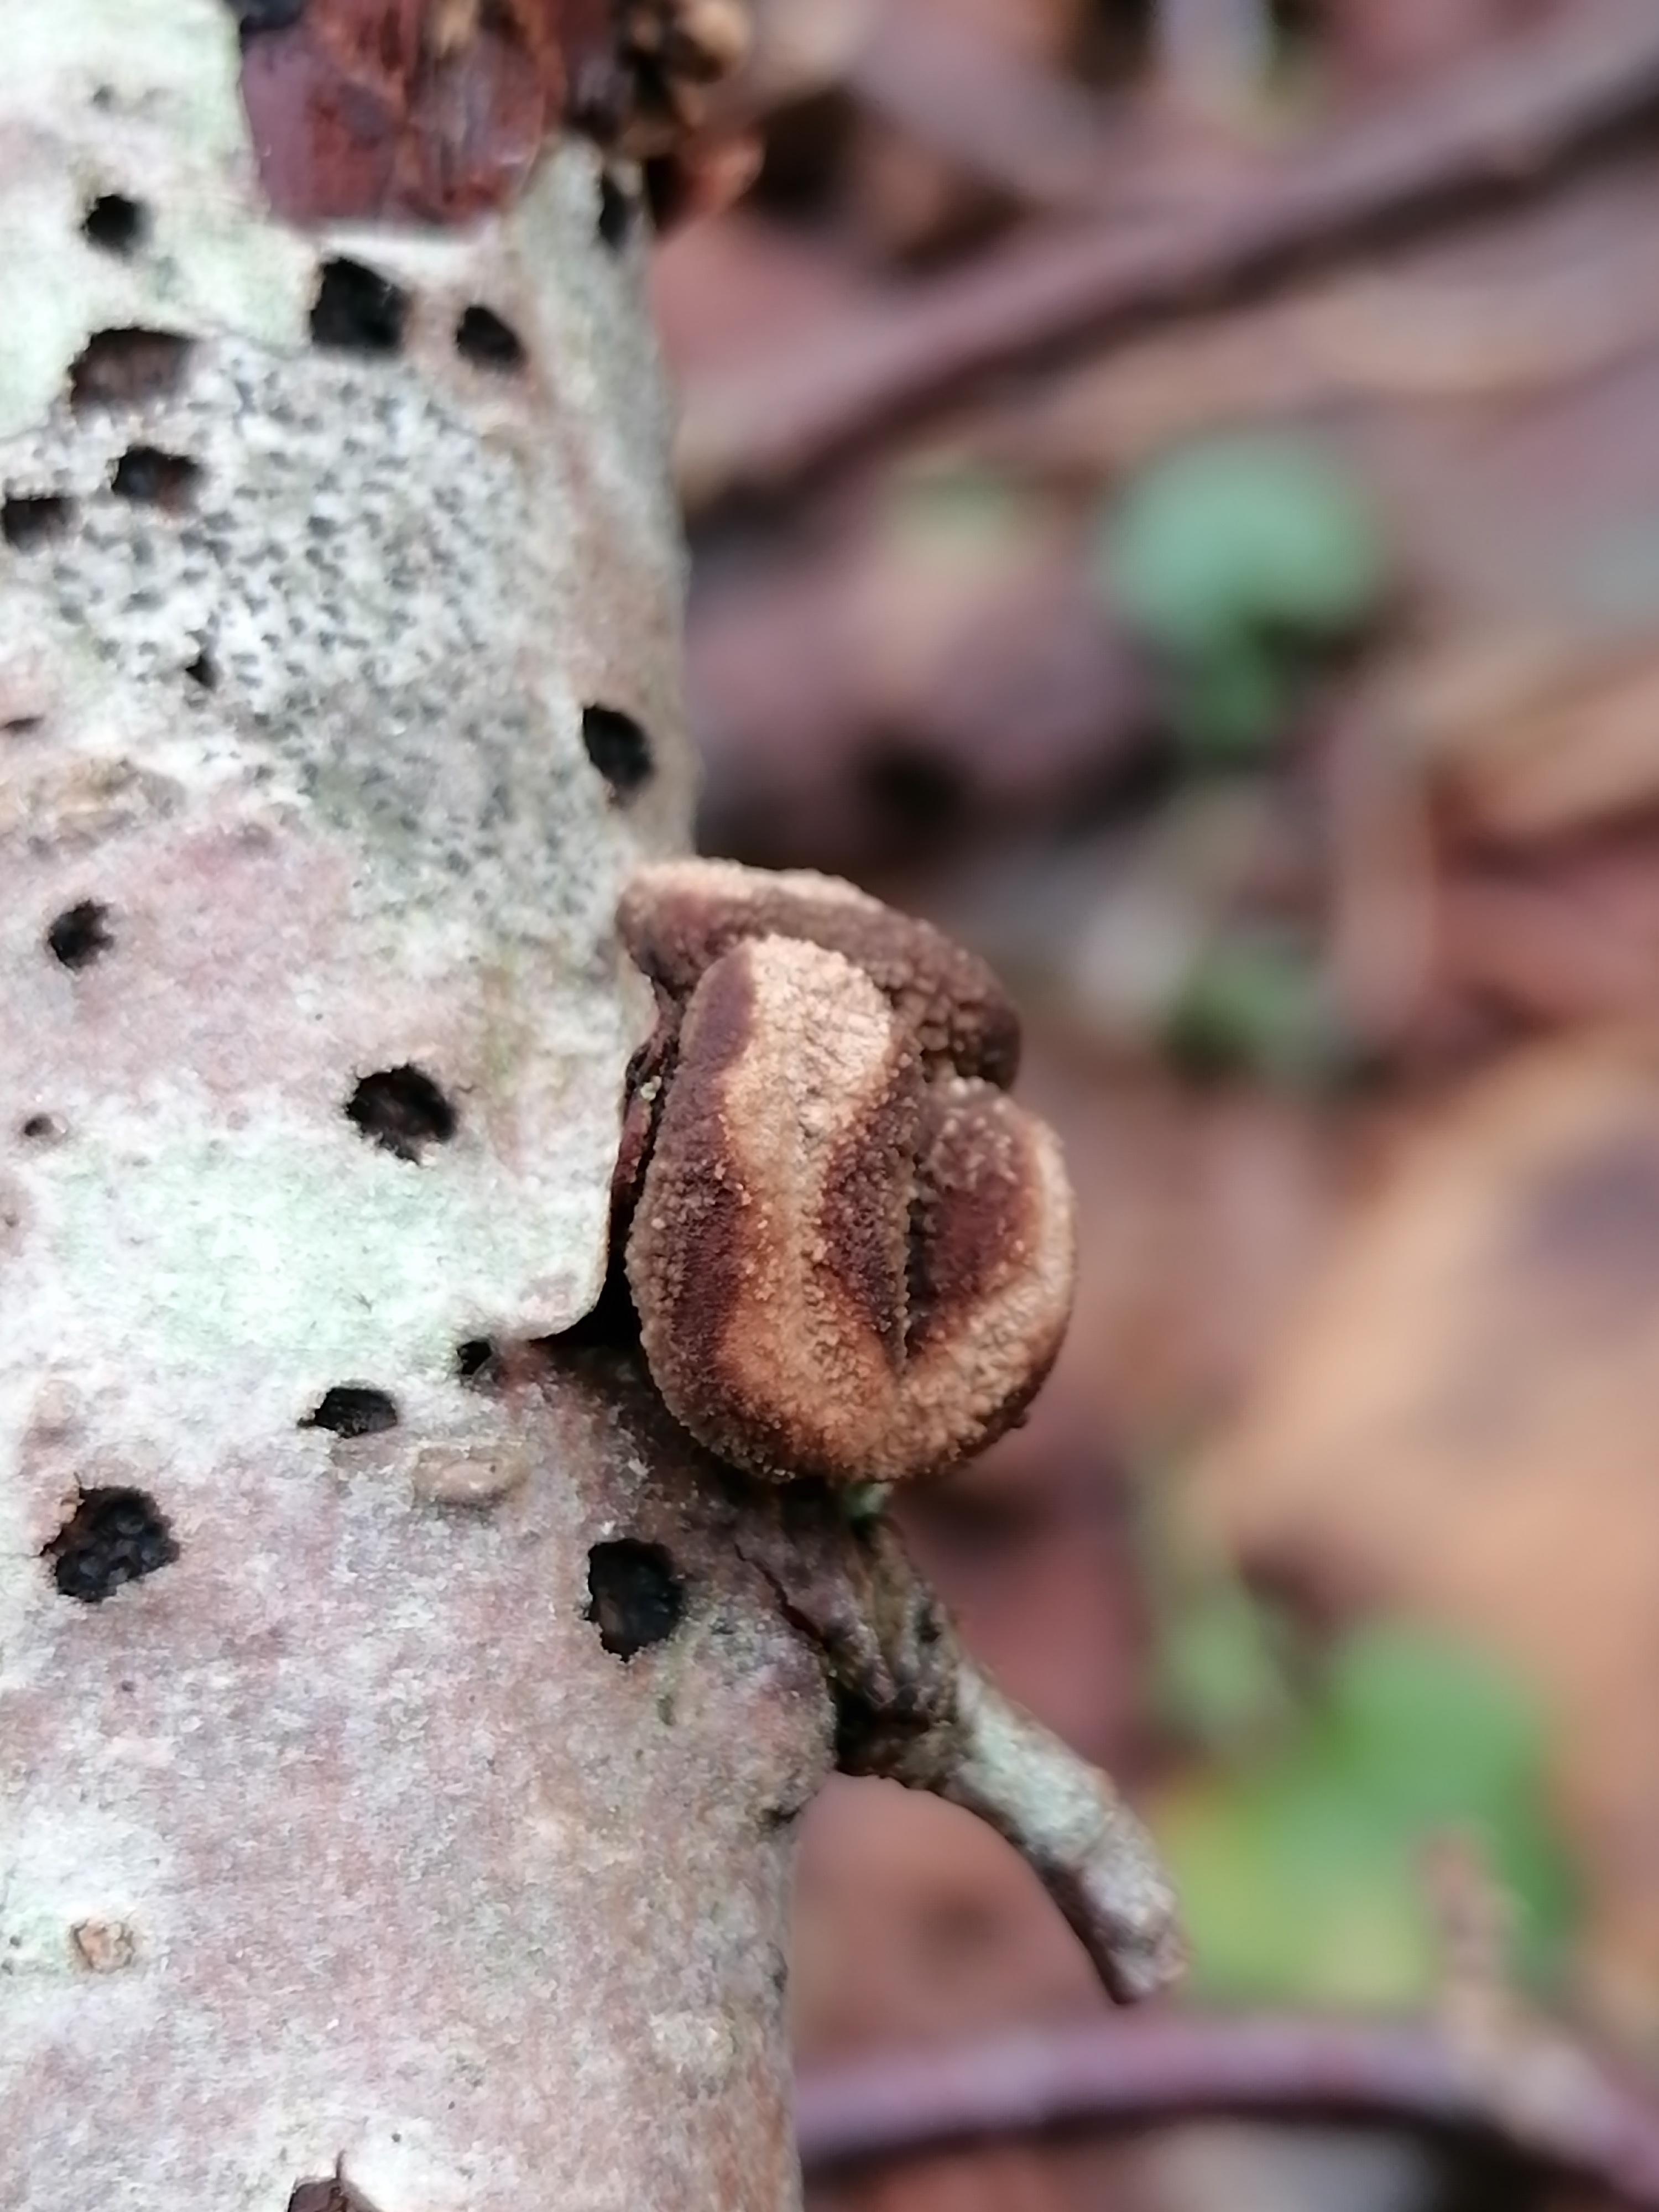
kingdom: Fungi
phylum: Ascomycota
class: Leotiomycetes
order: Helotiales
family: Cenangiaceae
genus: Encoelia
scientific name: Encoelia furfuracea
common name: hassel-læderskive
